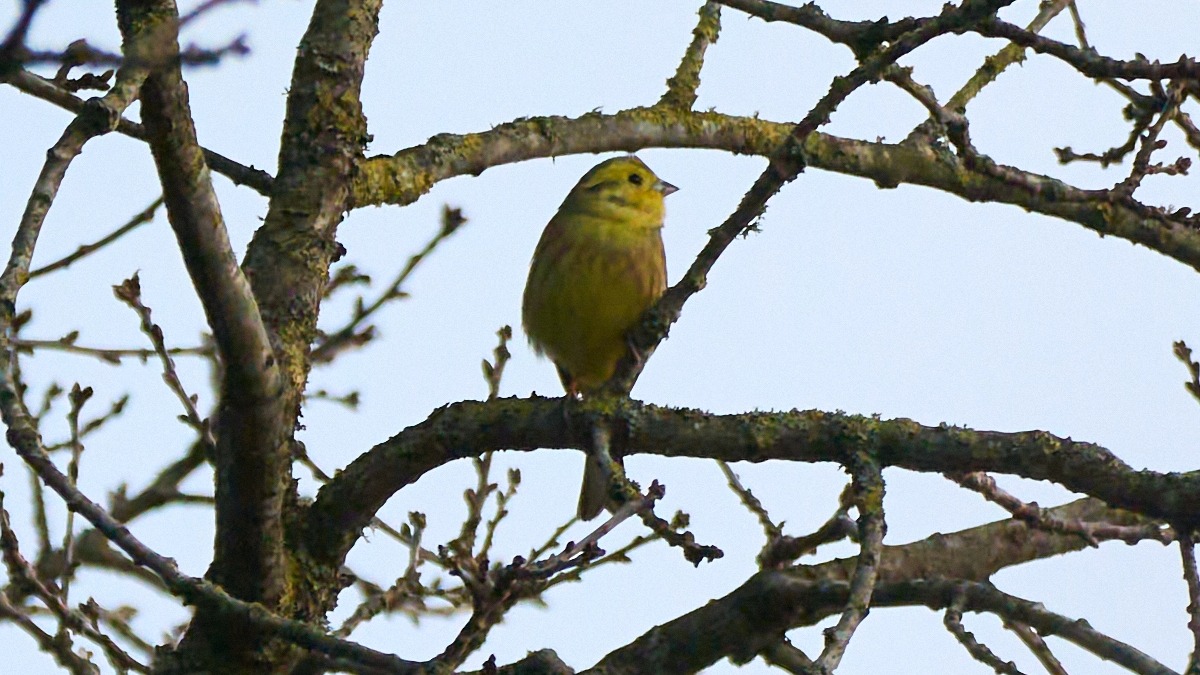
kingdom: Animalia
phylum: Chordata
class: Aves
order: Passeriformes
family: Emberizidae
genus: Emberiza
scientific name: Emberiza citrinella
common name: Gulspurv
